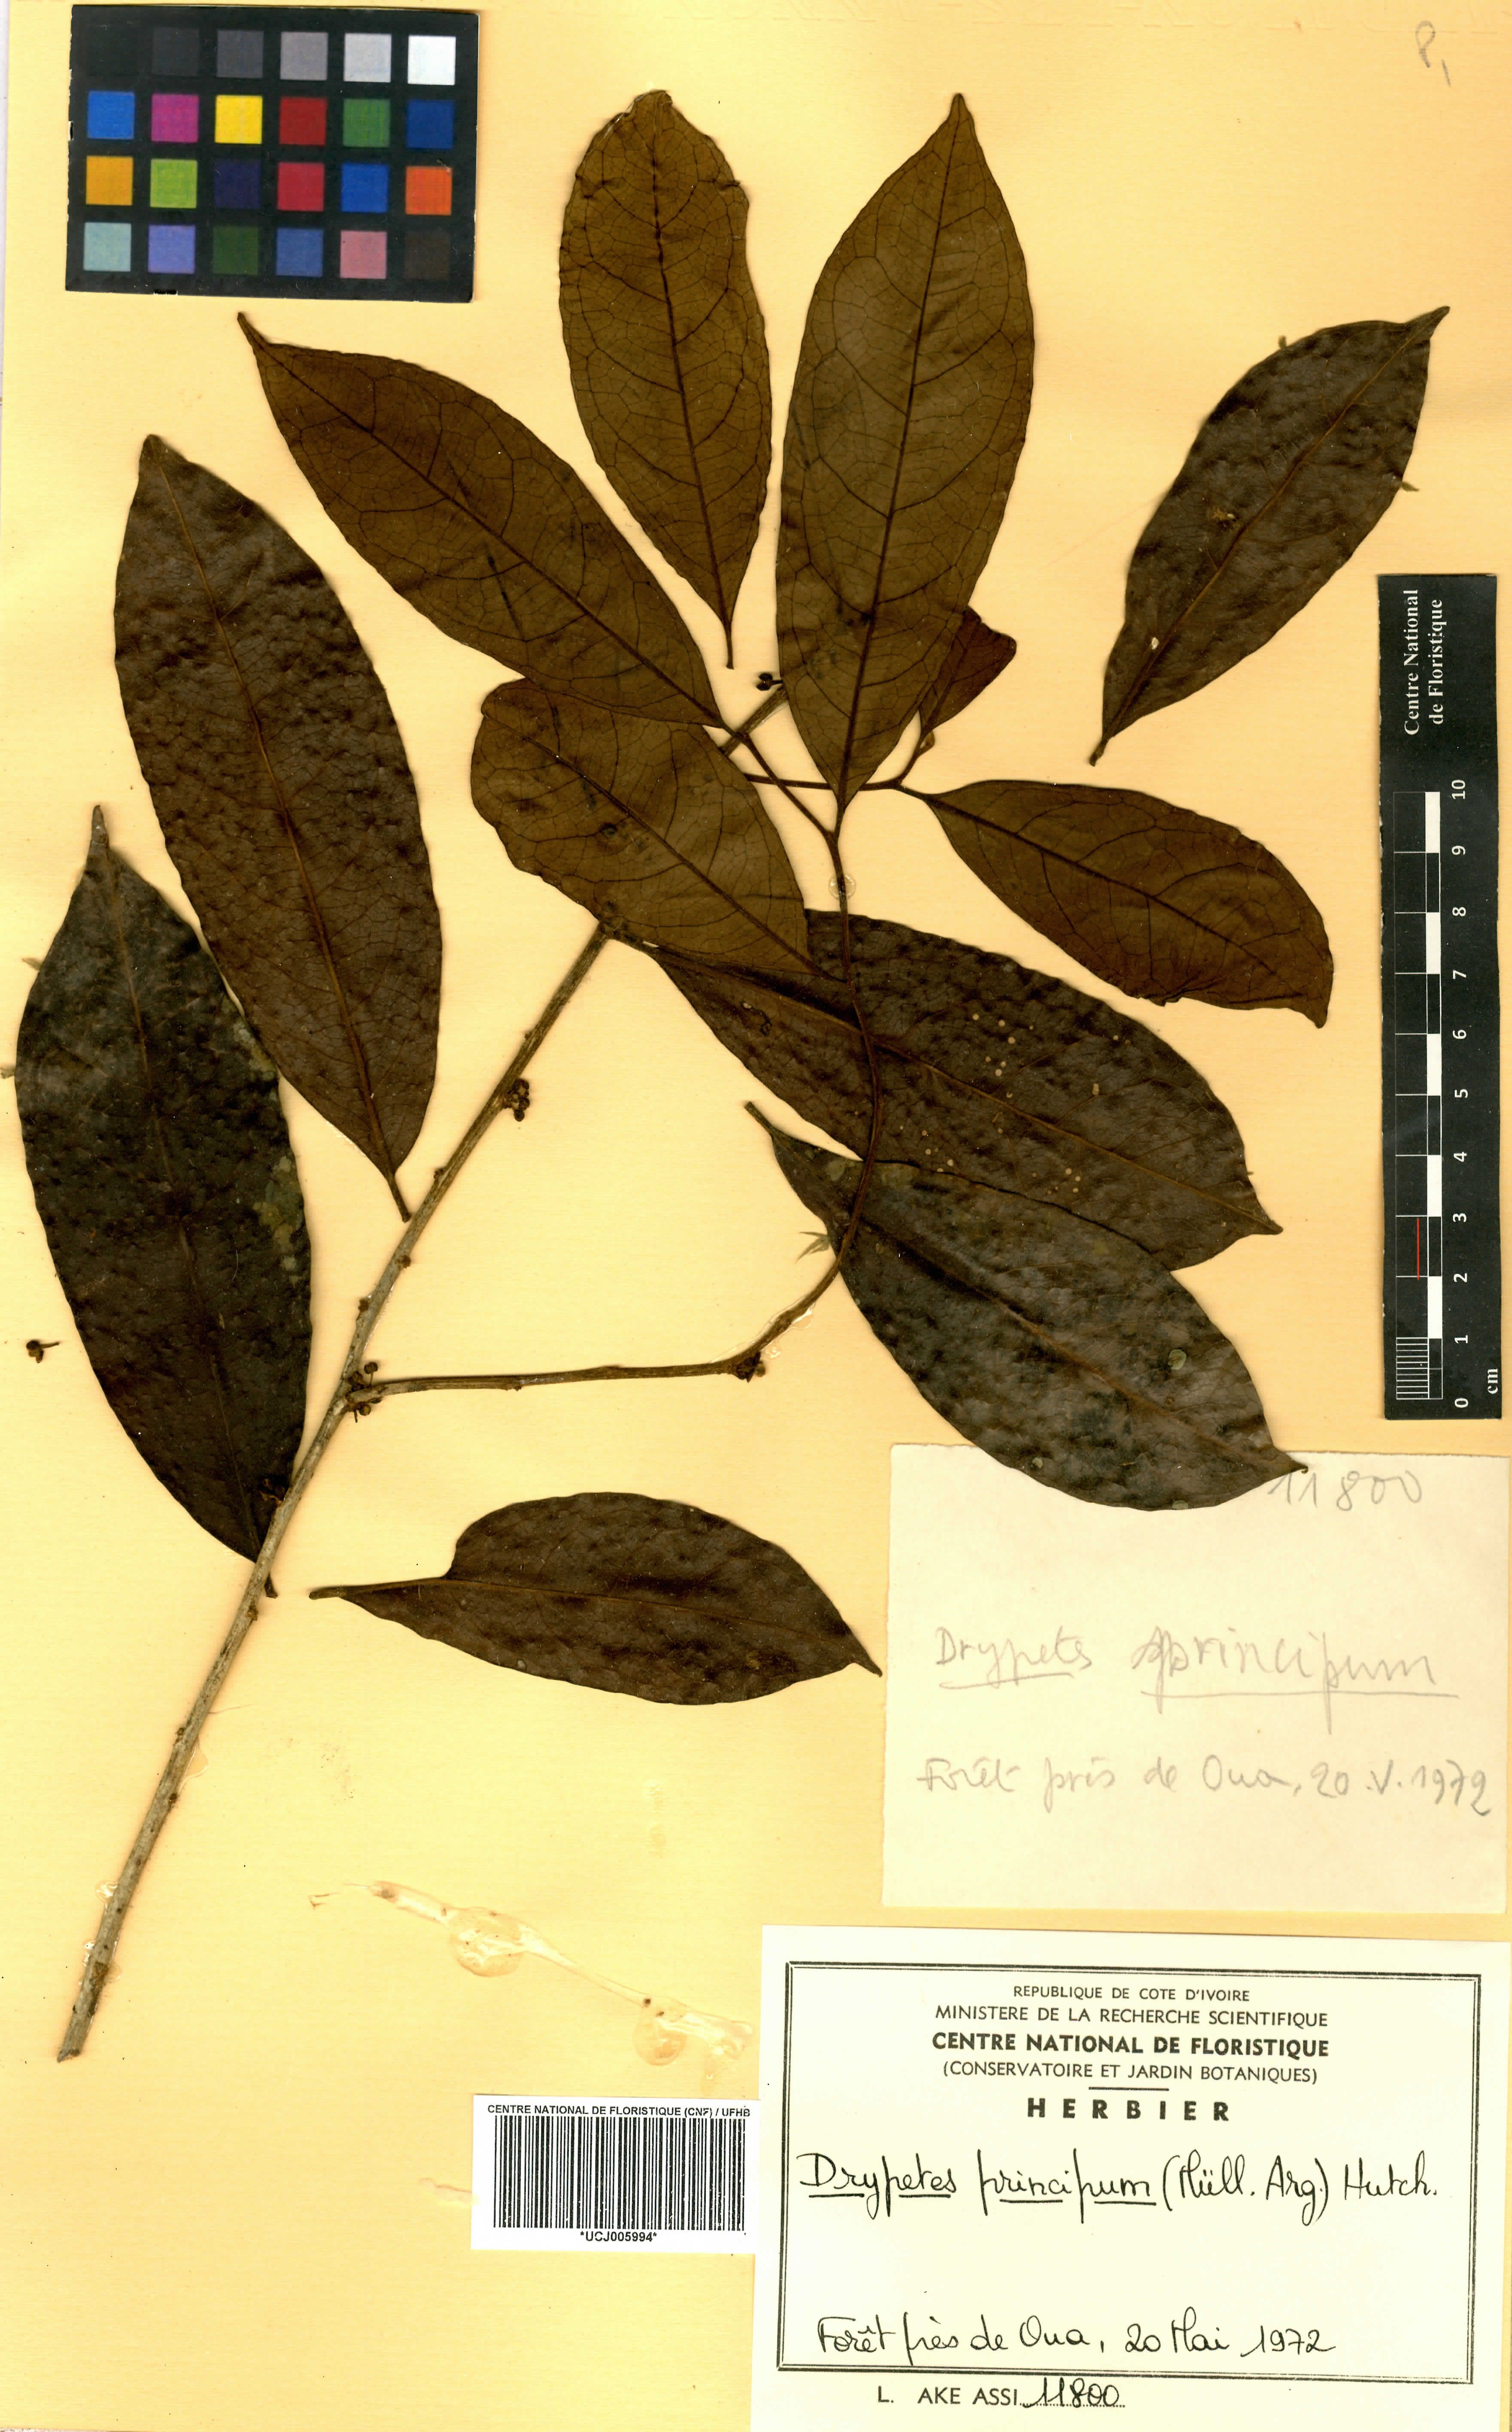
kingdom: Plantae
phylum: Tracheophyta
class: Magnoliopsida
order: Malpighiales
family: Putranjivaceae
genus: Drypetes
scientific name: Drypetes principum
